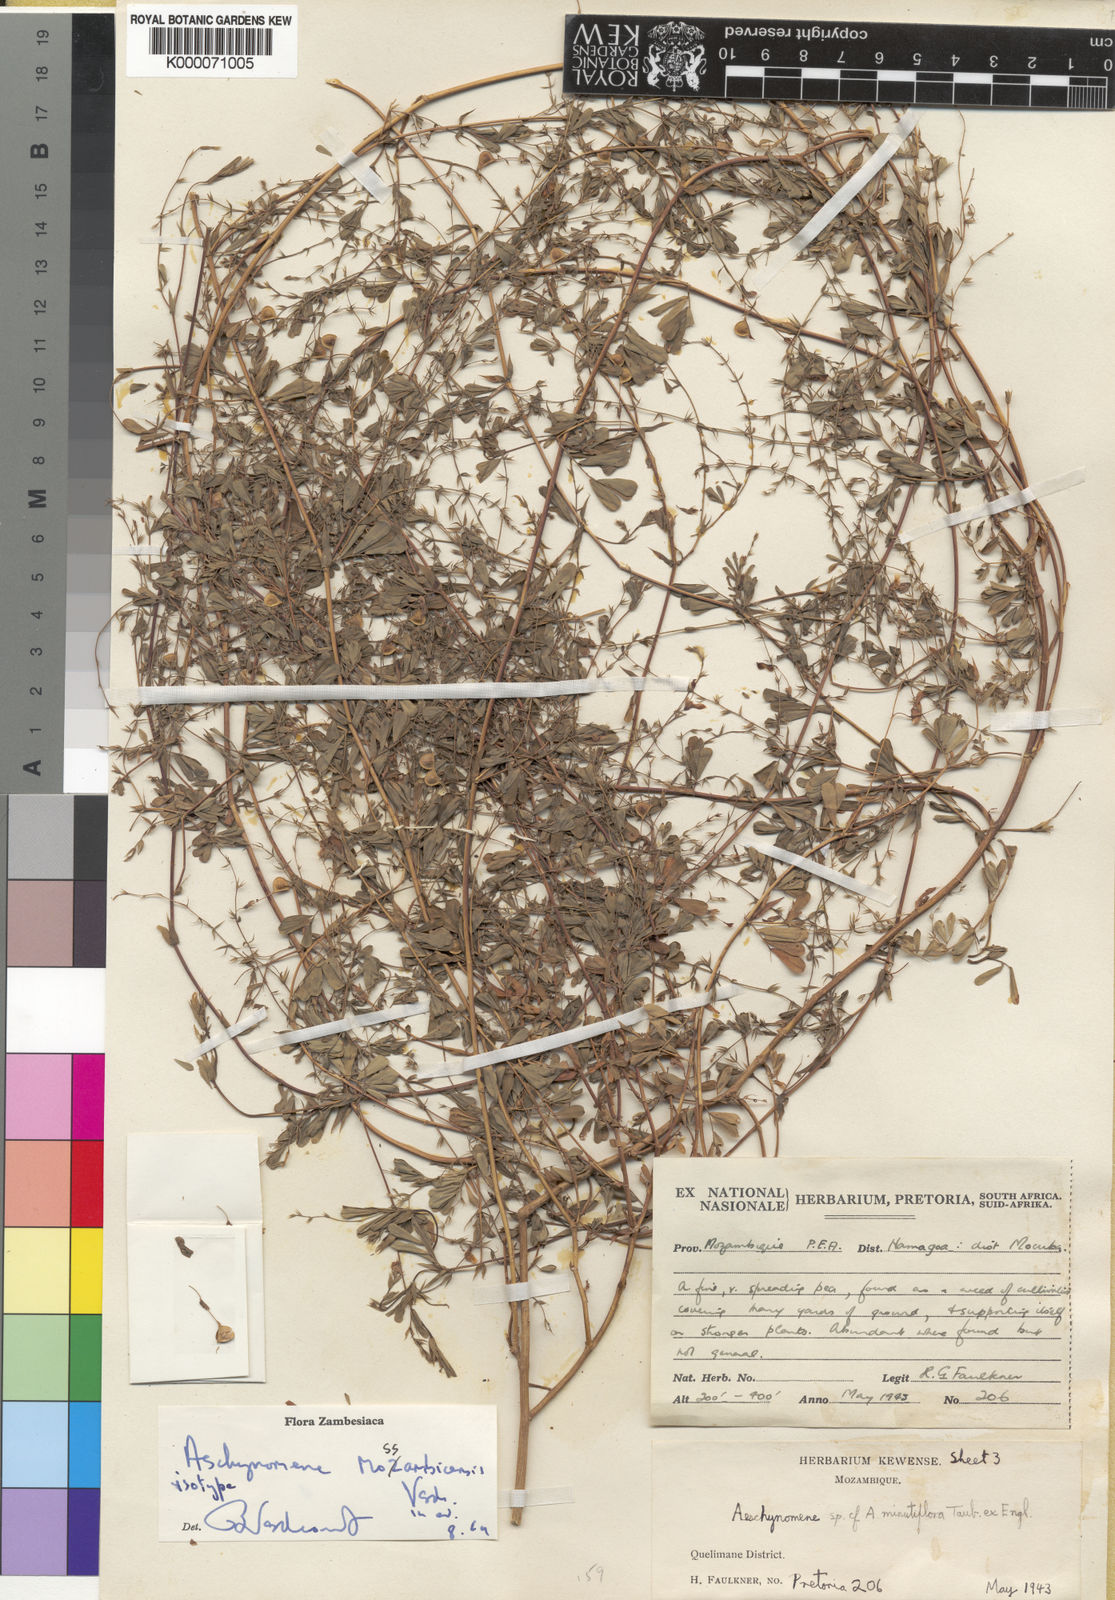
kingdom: Plantae
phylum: Tracheophyta
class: Magnoliopsida
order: Fabales
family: Fabaceae
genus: Aeschynomene
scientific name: Aeschynomene mossambicensis
